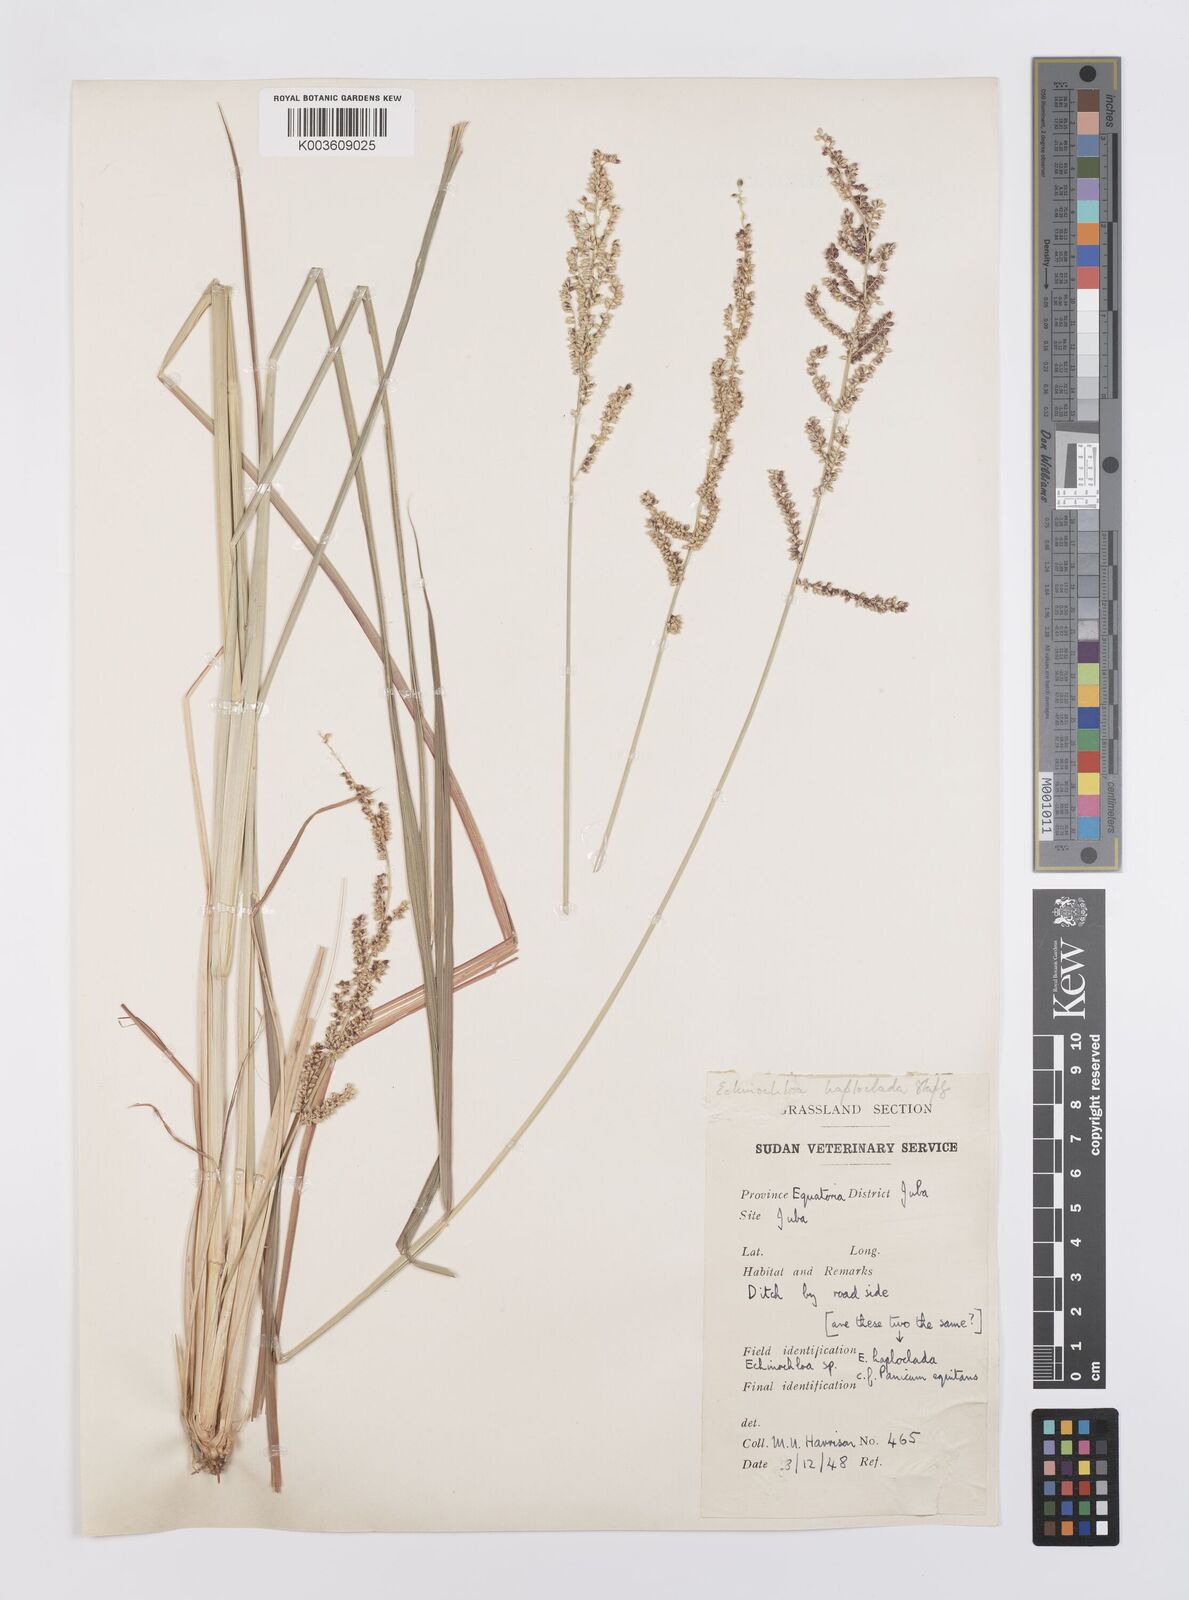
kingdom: Plantae
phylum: Tracheophyta
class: Liliopsida
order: Poales
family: Poaceae
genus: Echinochloa
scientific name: Echinochloa haploclada
